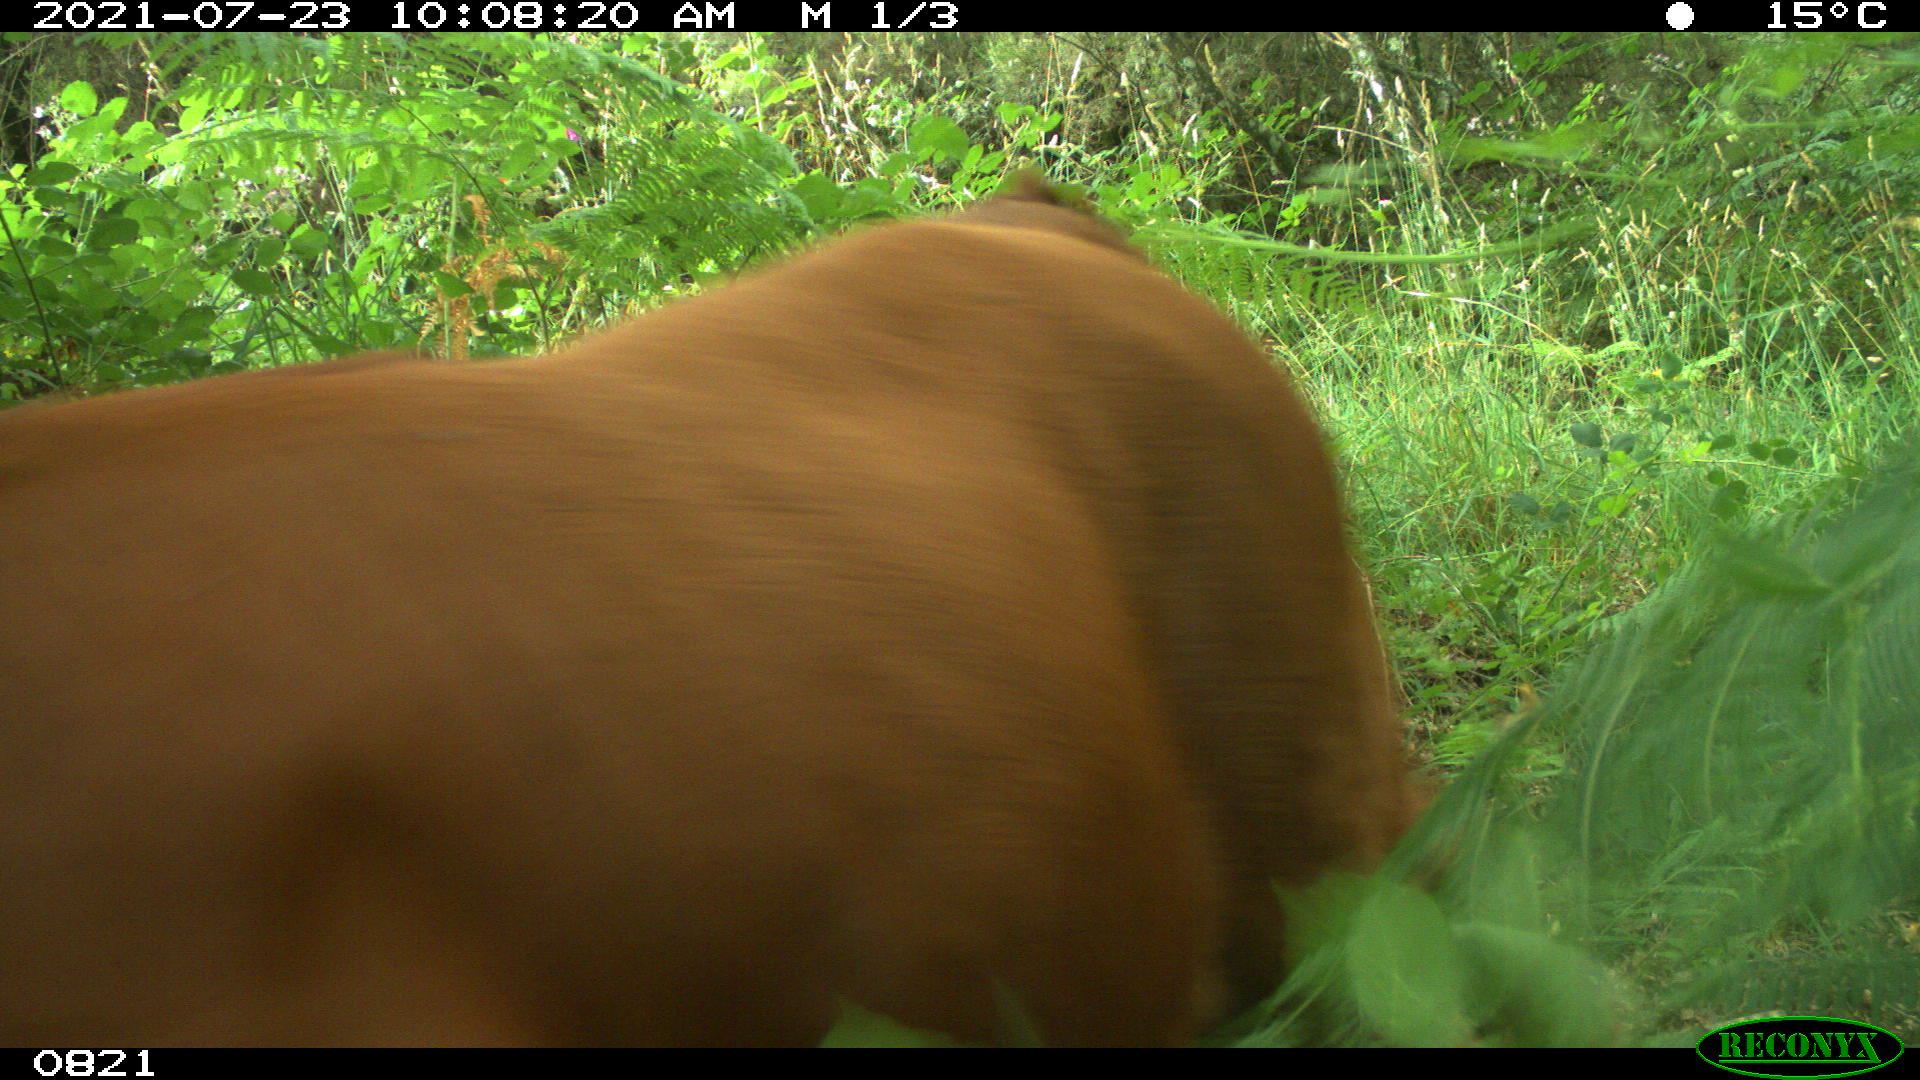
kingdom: Animalia
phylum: Chordata
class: Mammalia
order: Artiodactyla
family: Bovidae
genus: Bos
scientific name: Bos taurus
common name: Domesticated cattle
